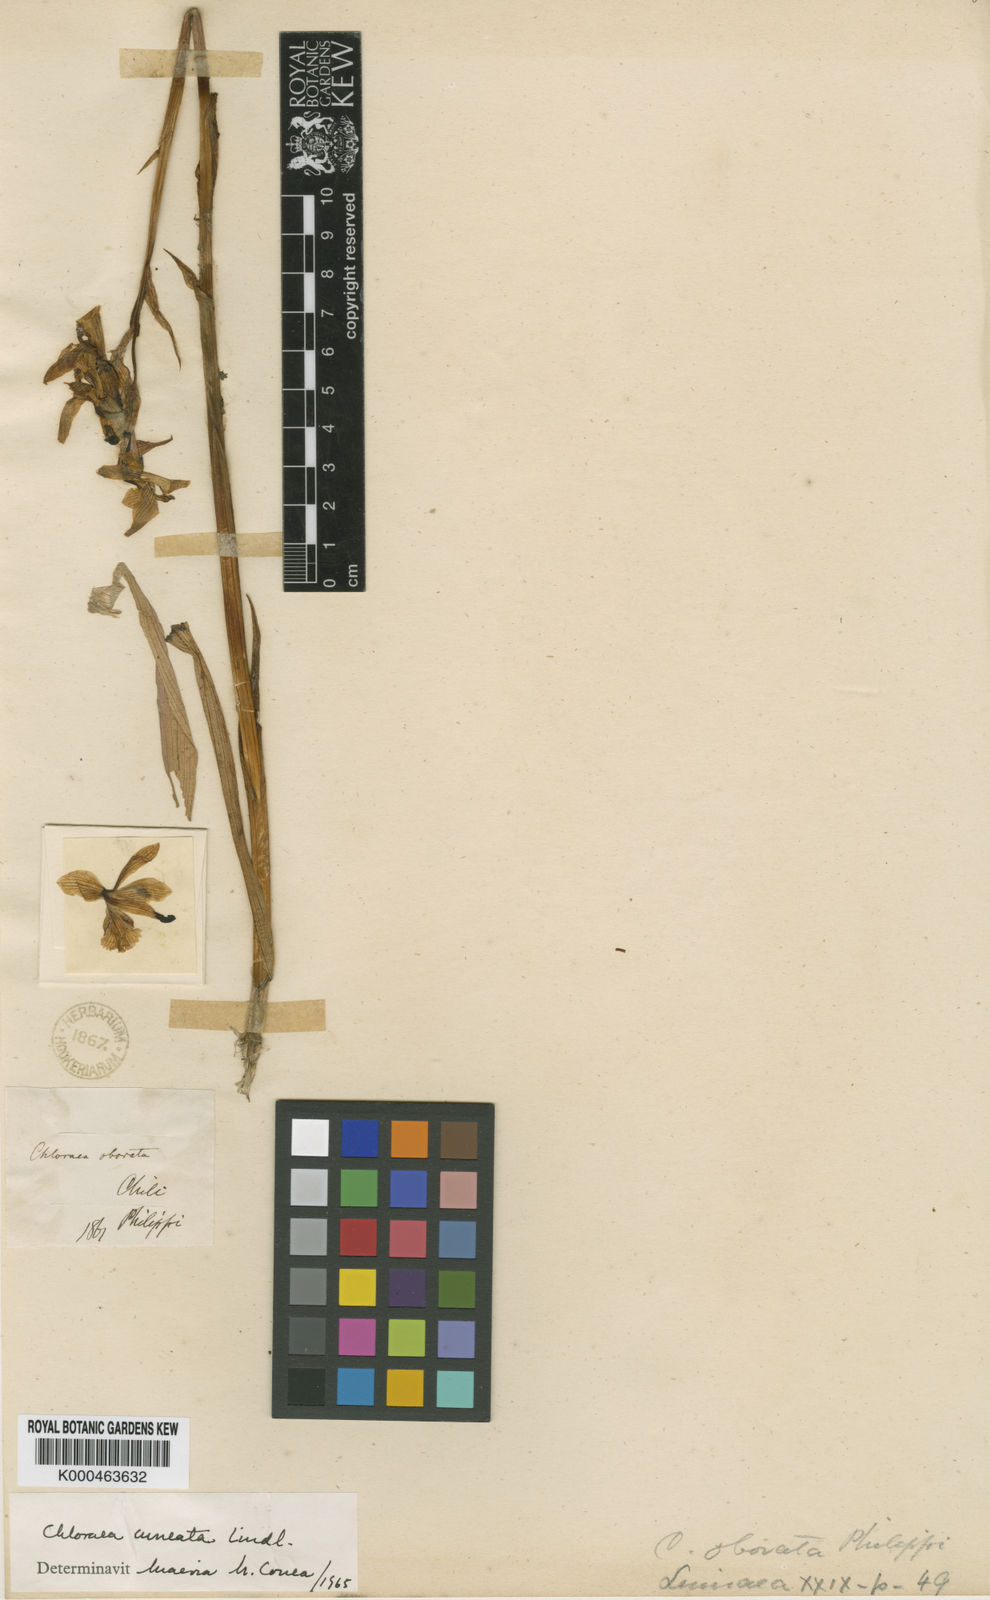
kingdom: Plantae
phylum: Tracheophyta
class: Liliopsida
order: Asparagales
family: Orchidaceae
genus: Chloraea
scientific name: Chloraea cuneata
